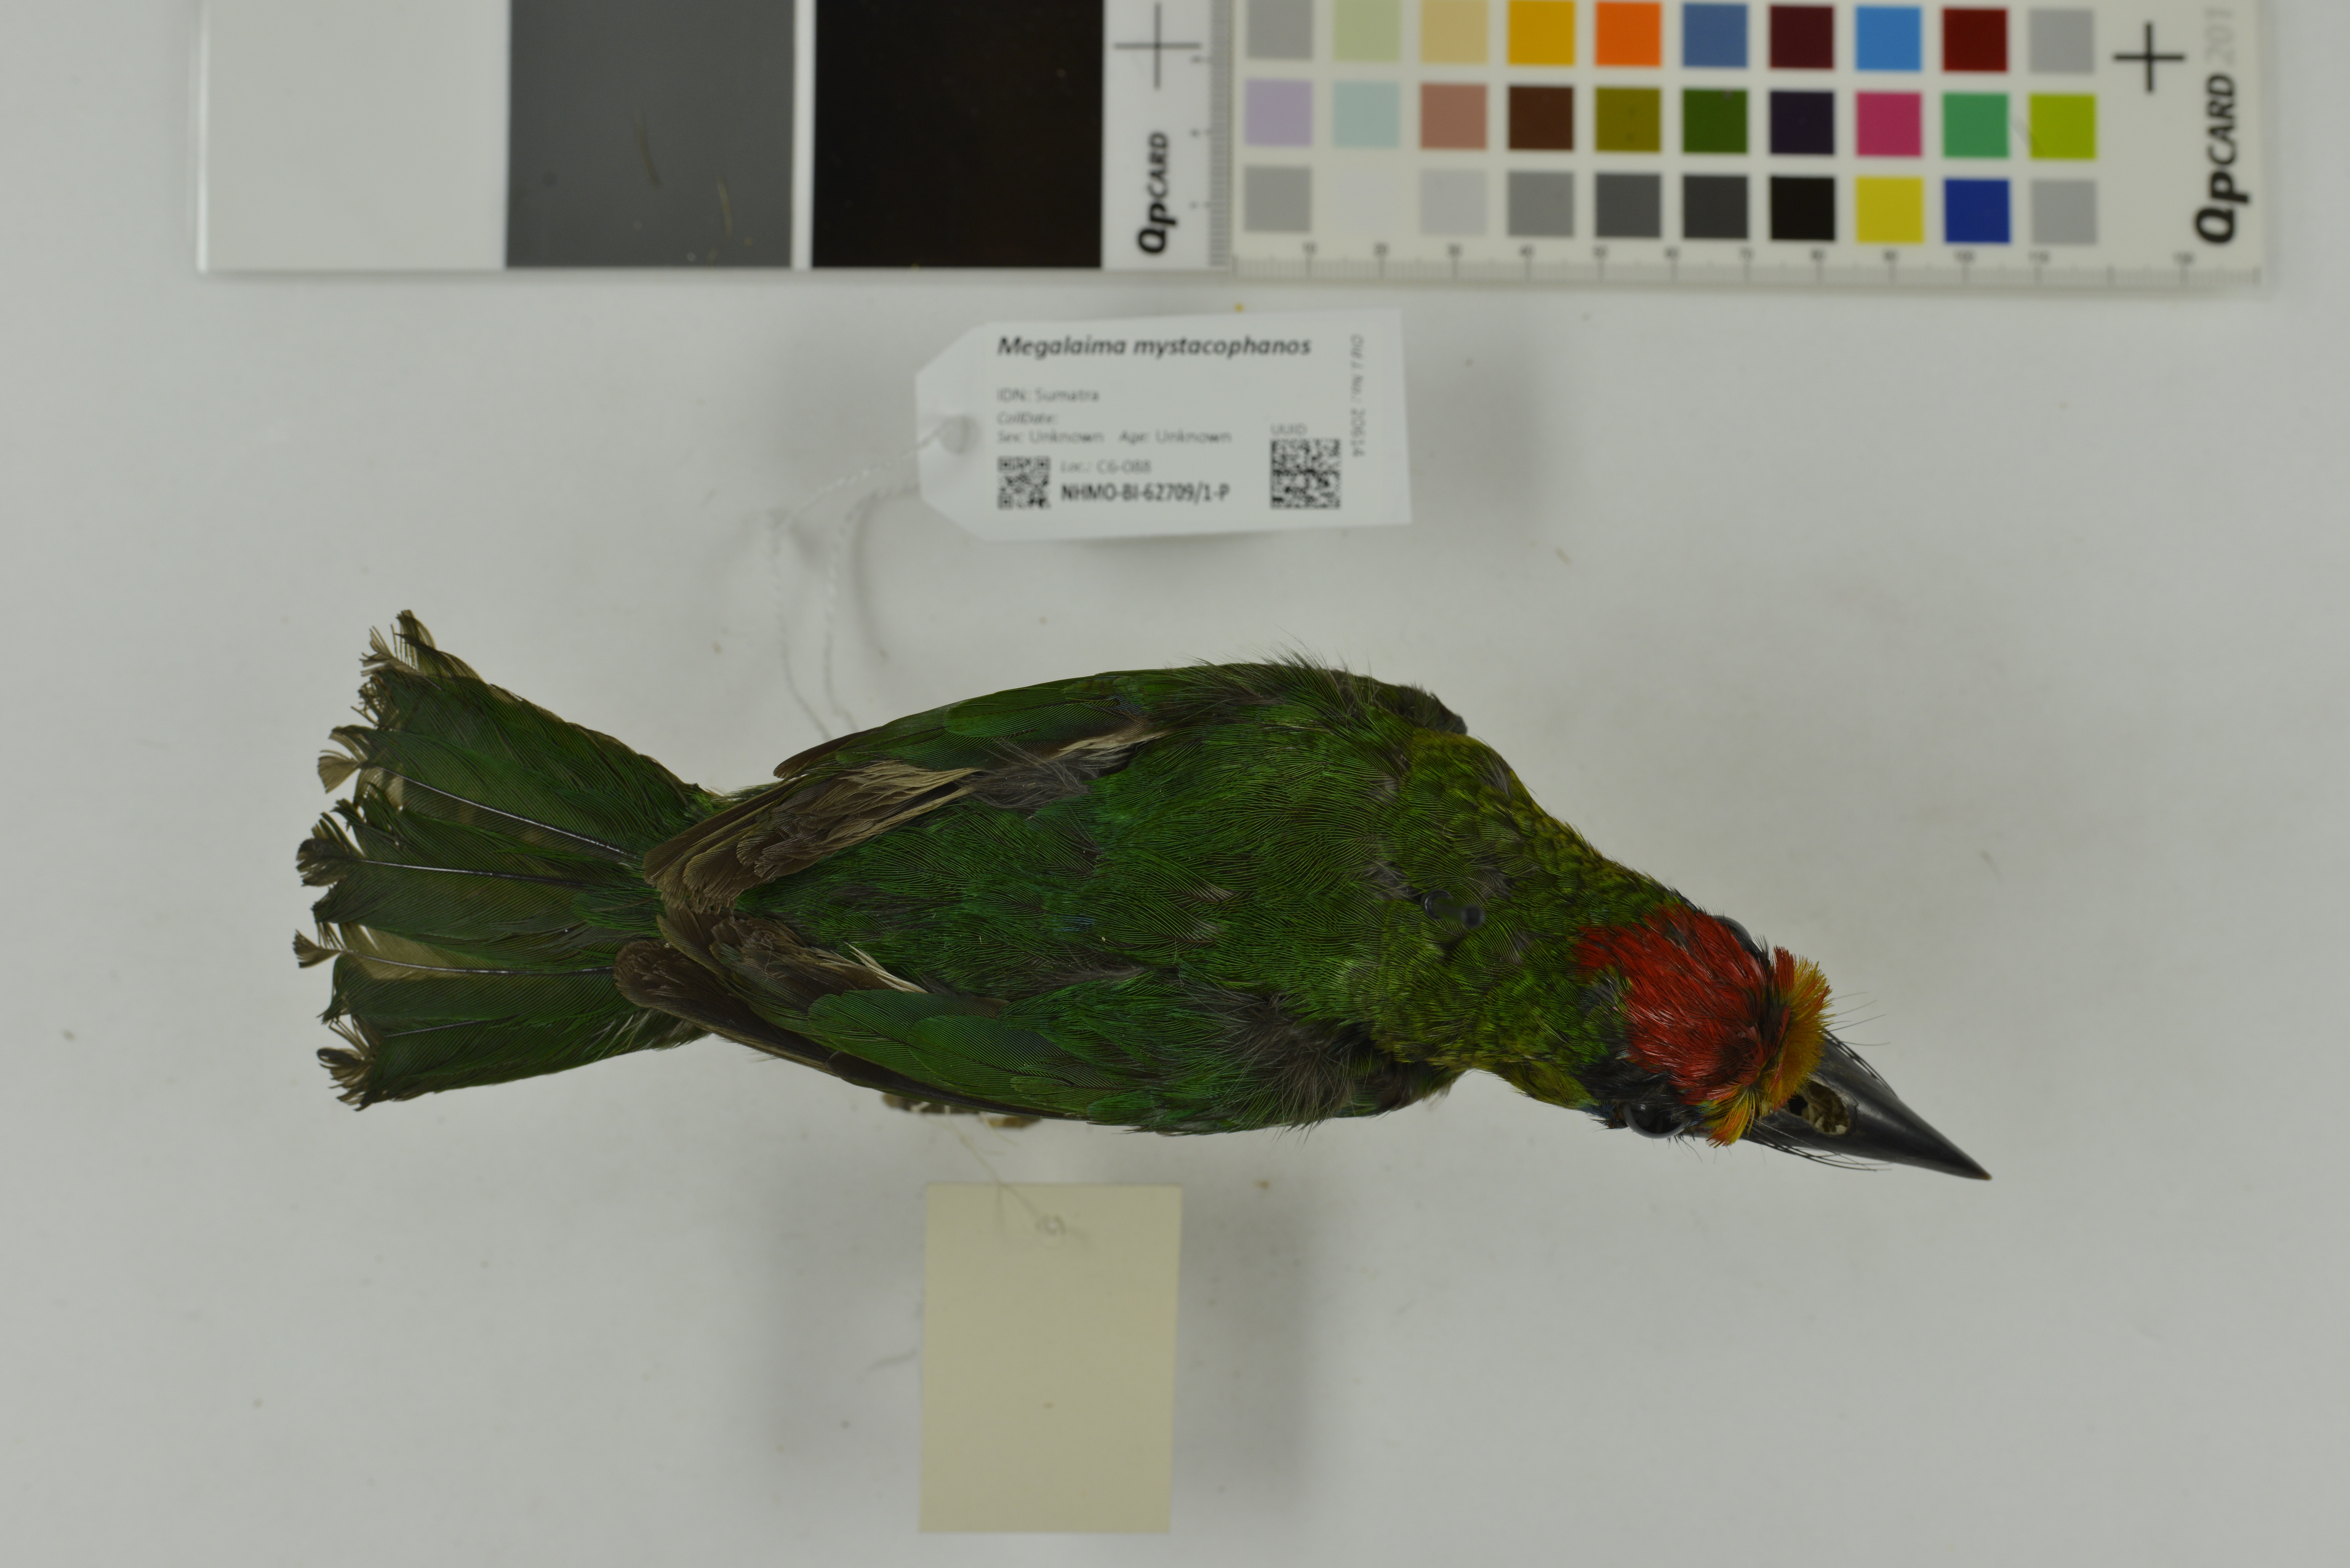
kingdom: Animalia
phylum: Chordata
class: Aves
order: Piciformes
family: Megalaimidae
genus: Psilopogon
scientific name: Psilopogon mystacophanos
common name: Red-throated barbet
